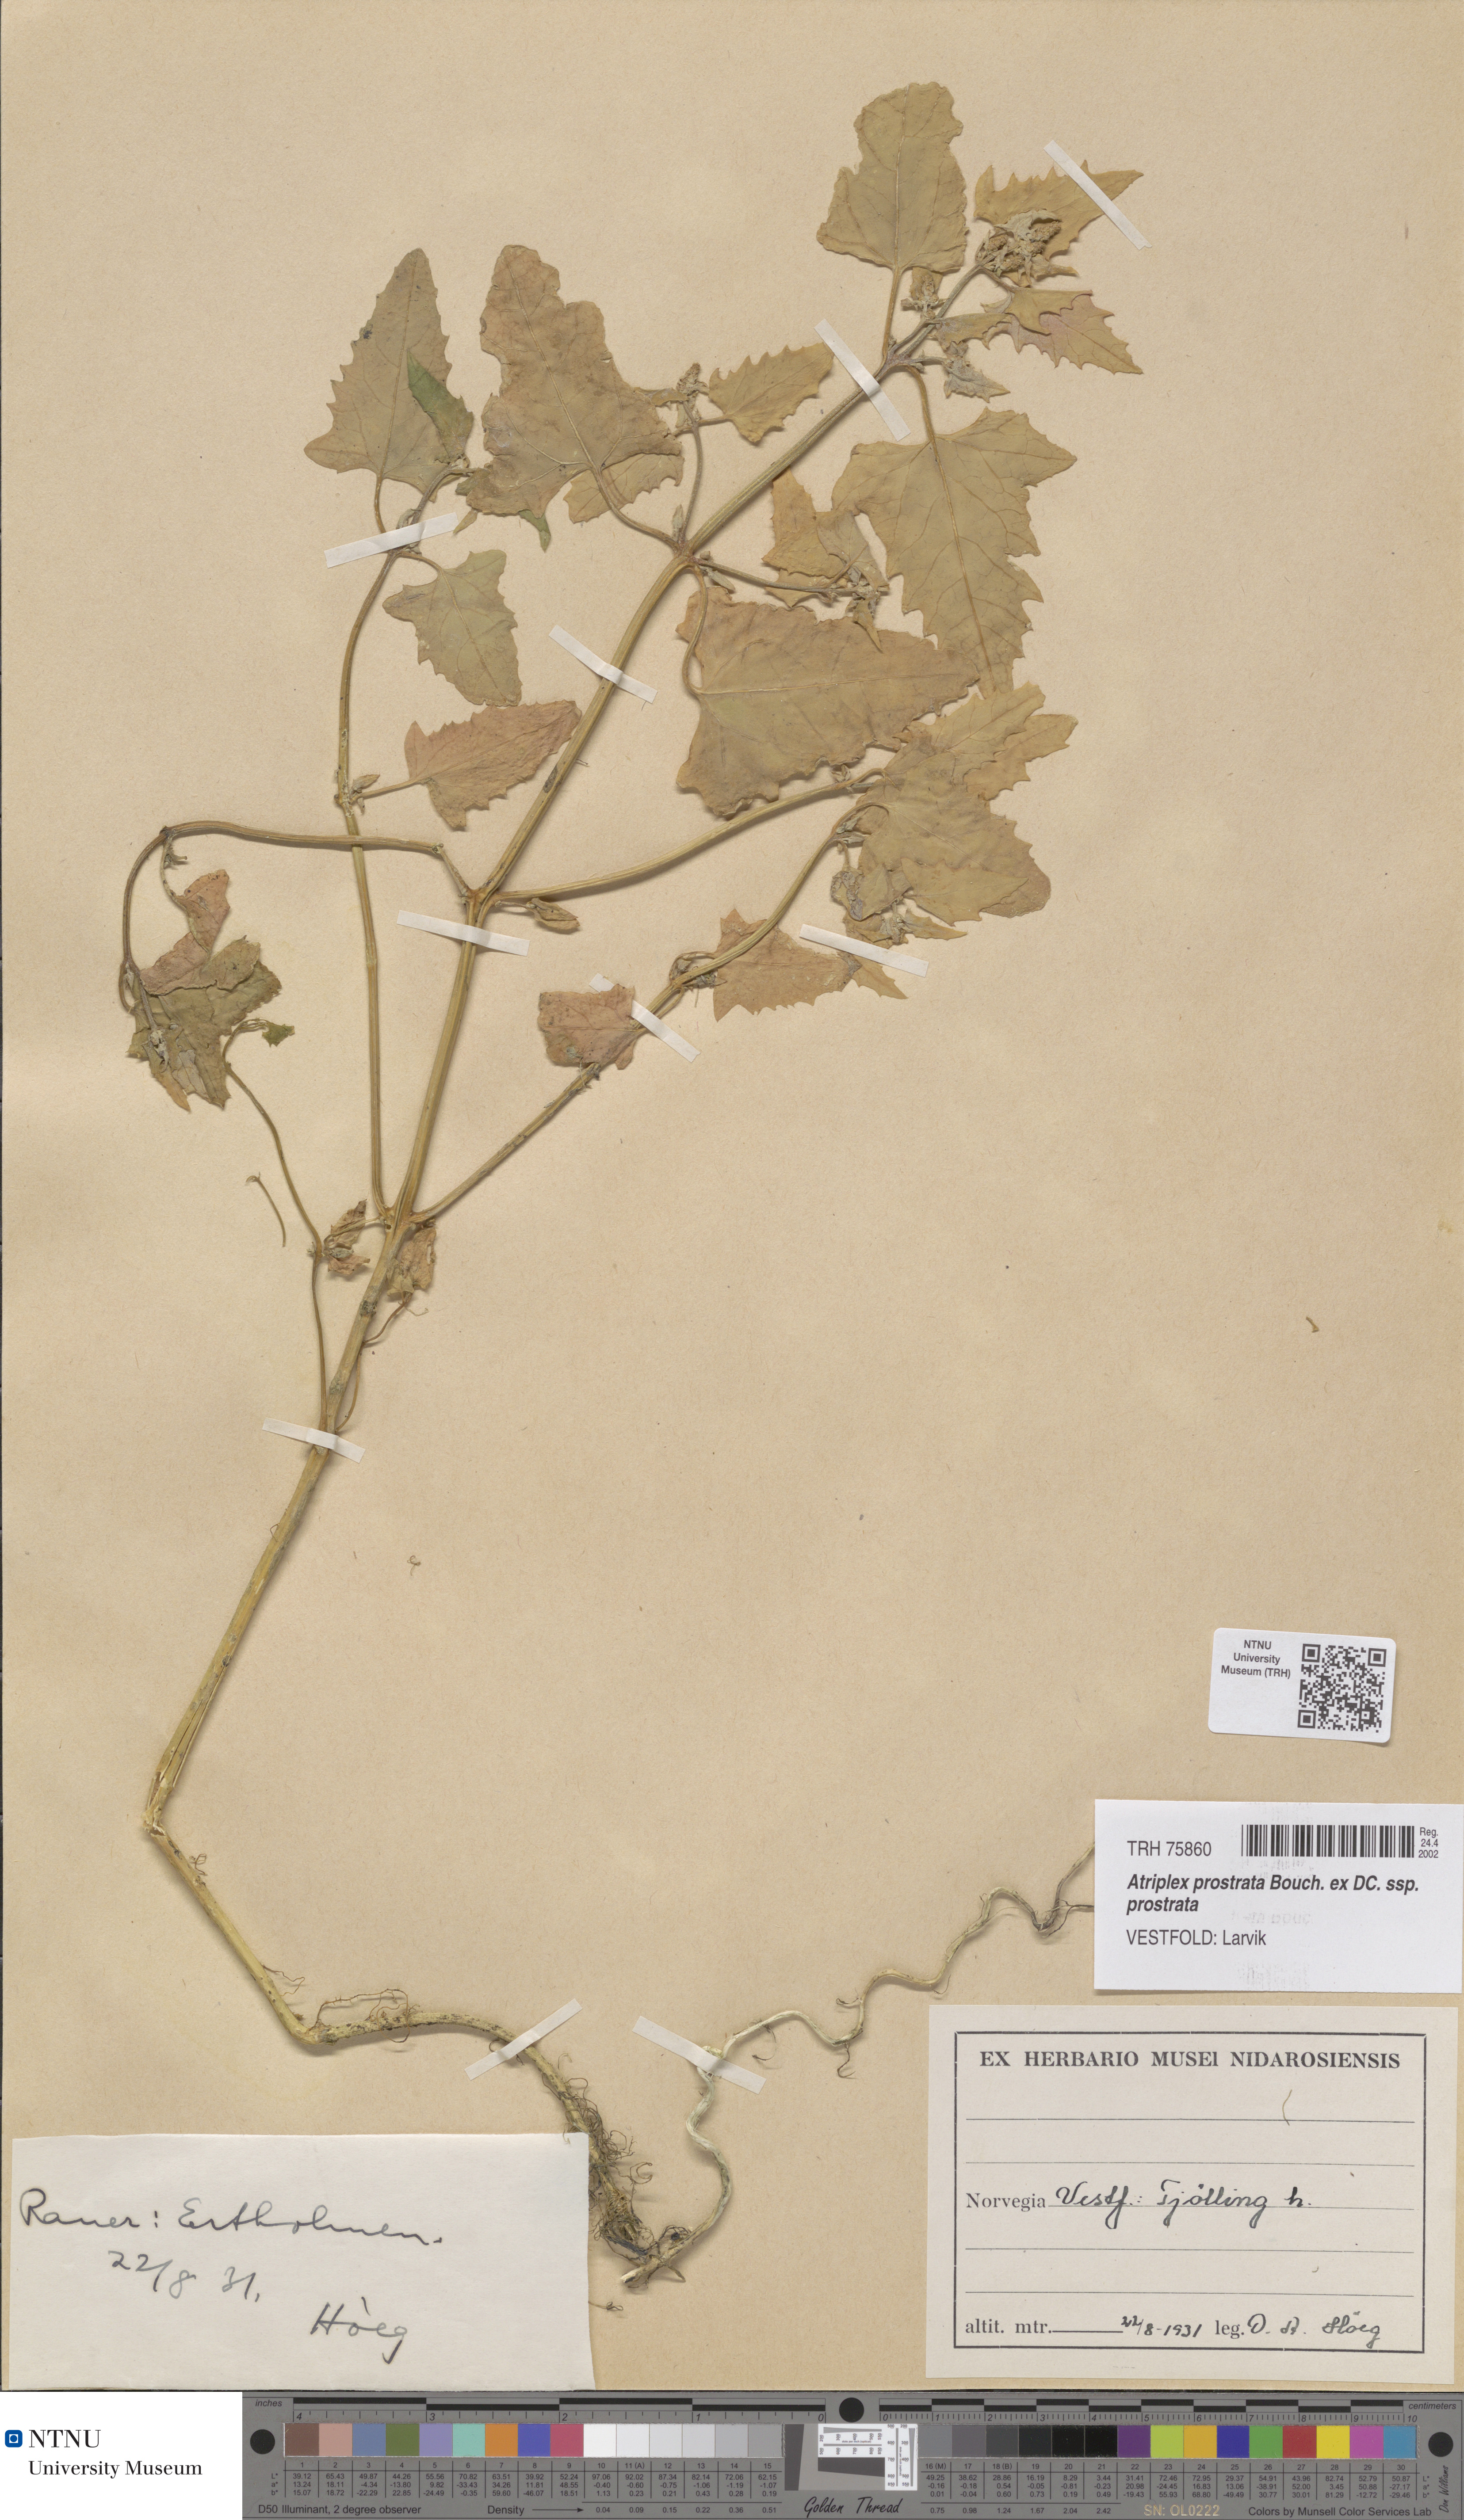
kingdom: Plantae
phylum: Tracheophyta
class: Magnoliopsida
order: Caryophyllales
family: Amaranthaceae
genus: Atriplex
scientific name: Atriplex prostrata
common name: Spear-leaved orache
